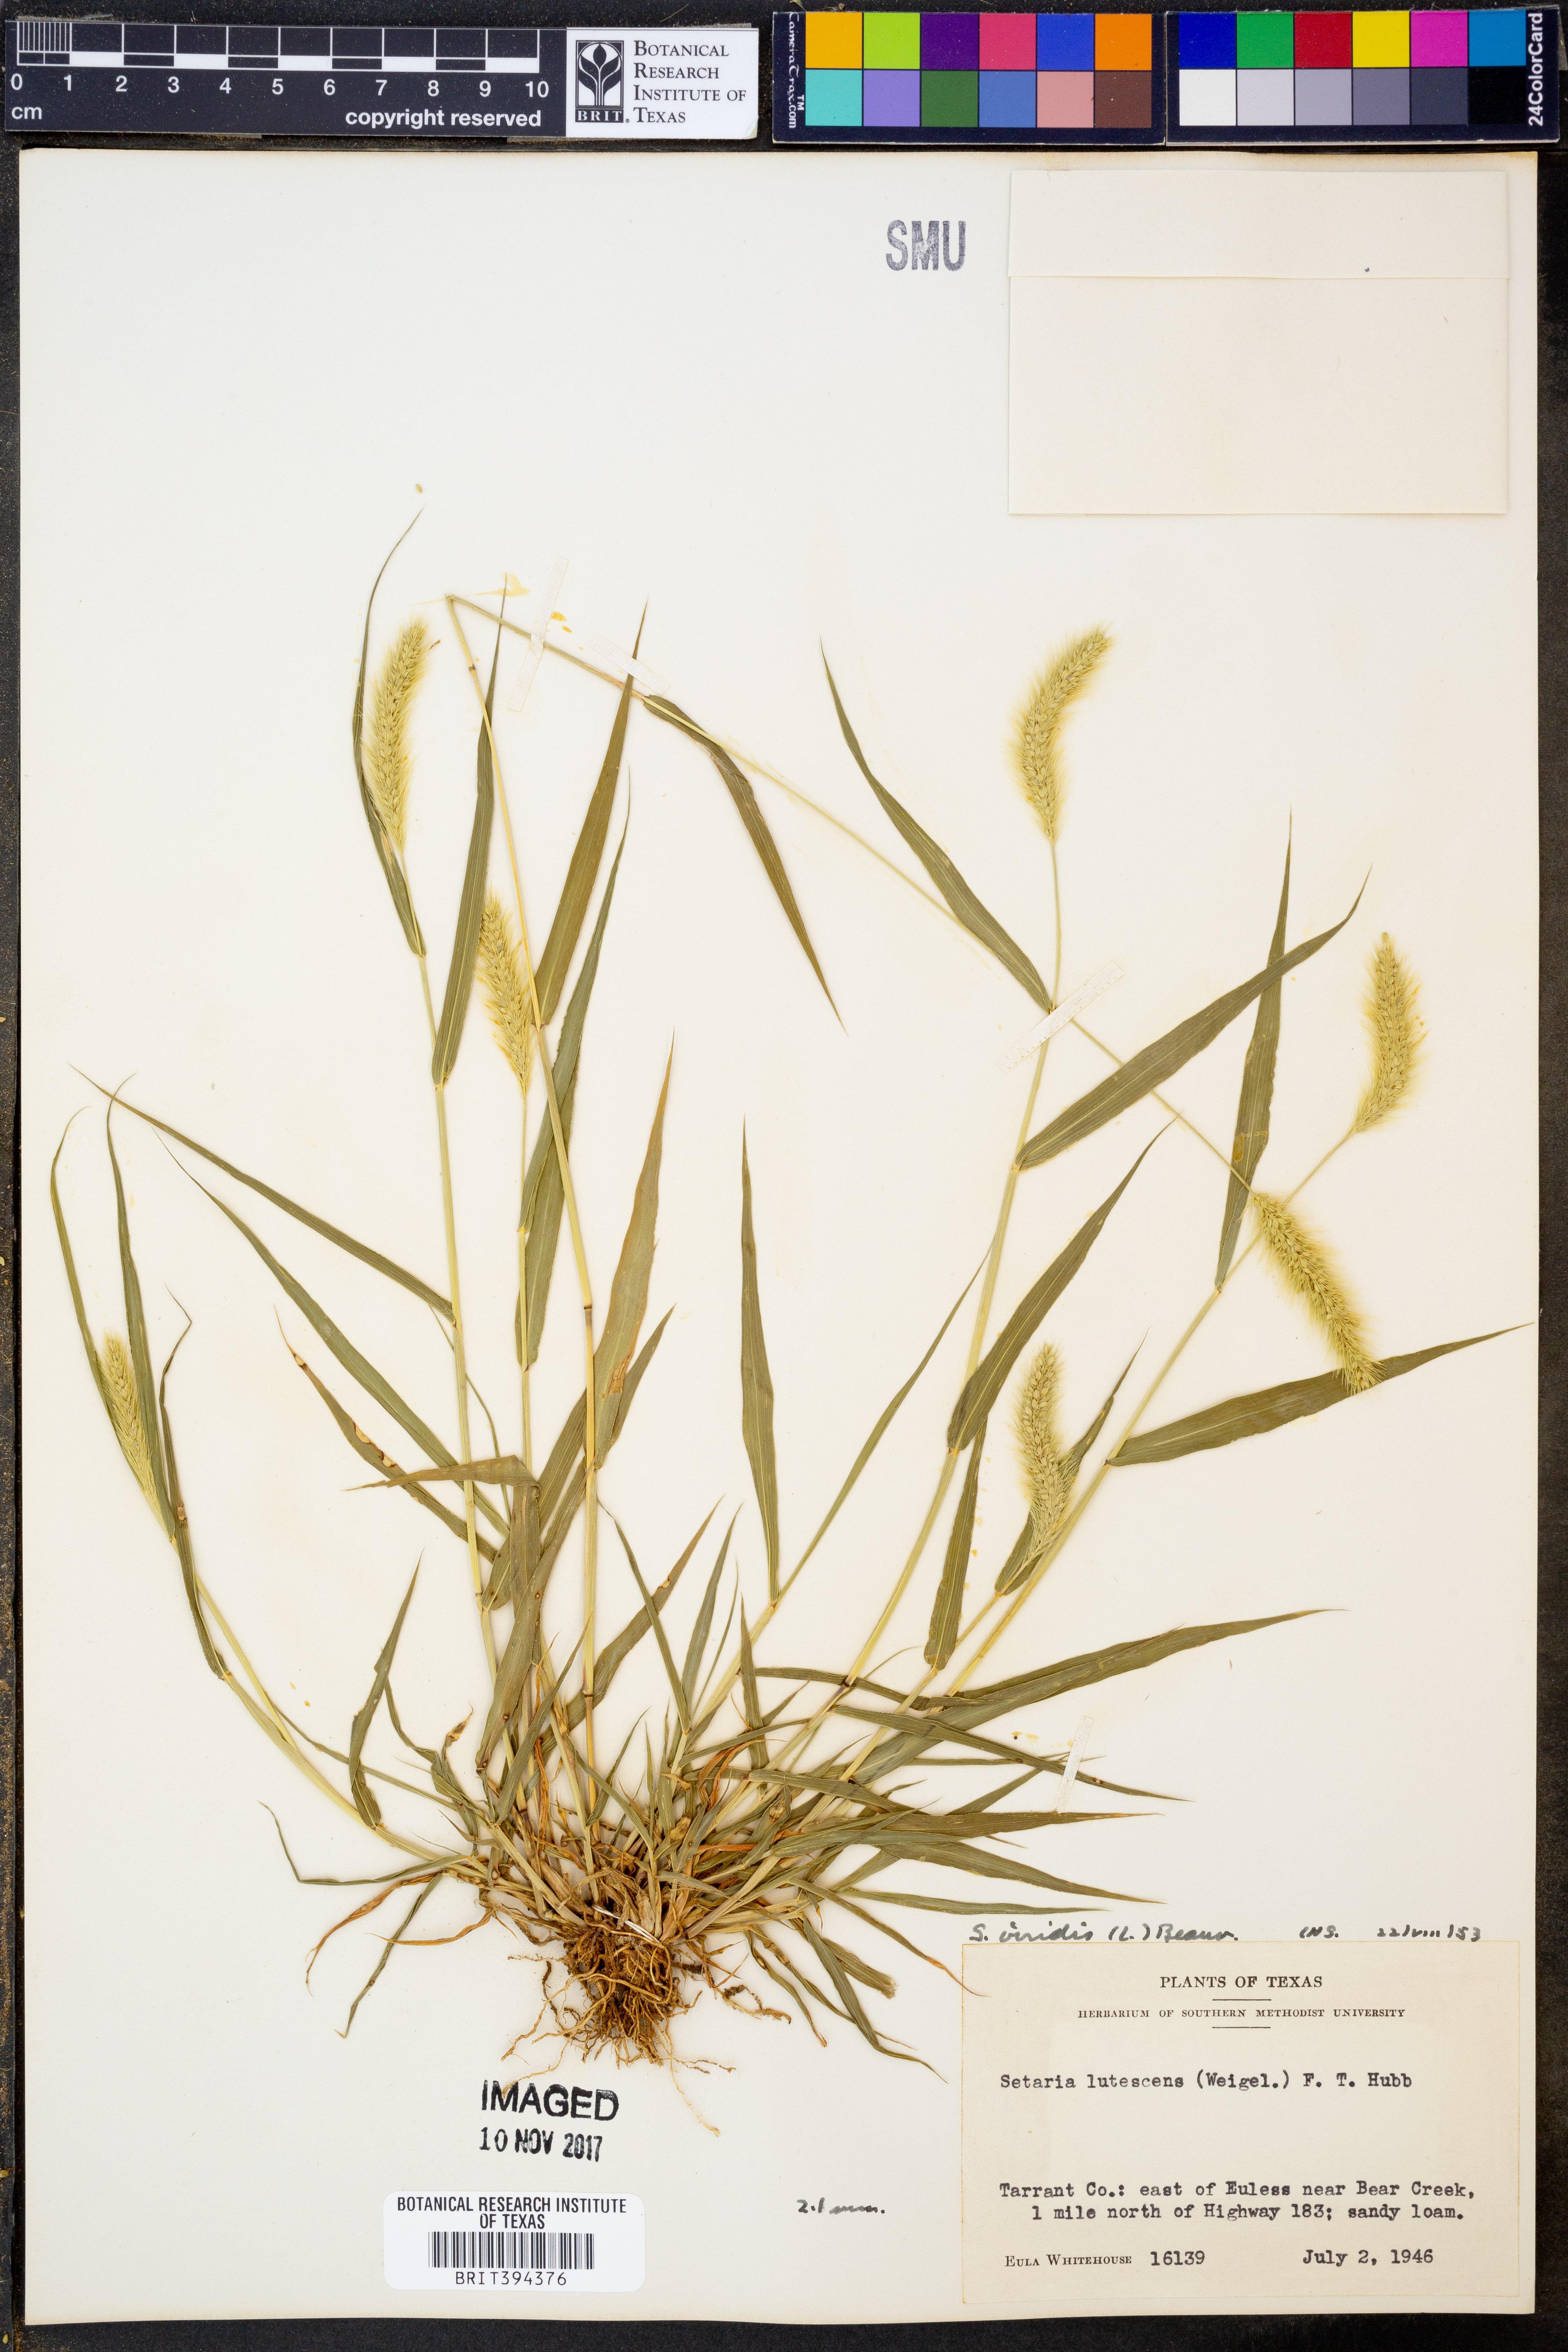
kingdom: Plantae
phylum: Tracheophyta
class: Liliopsida
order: Poales
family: Poaceae
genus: Setaria
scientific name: Setaria viridis
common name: Green bristlegrass
